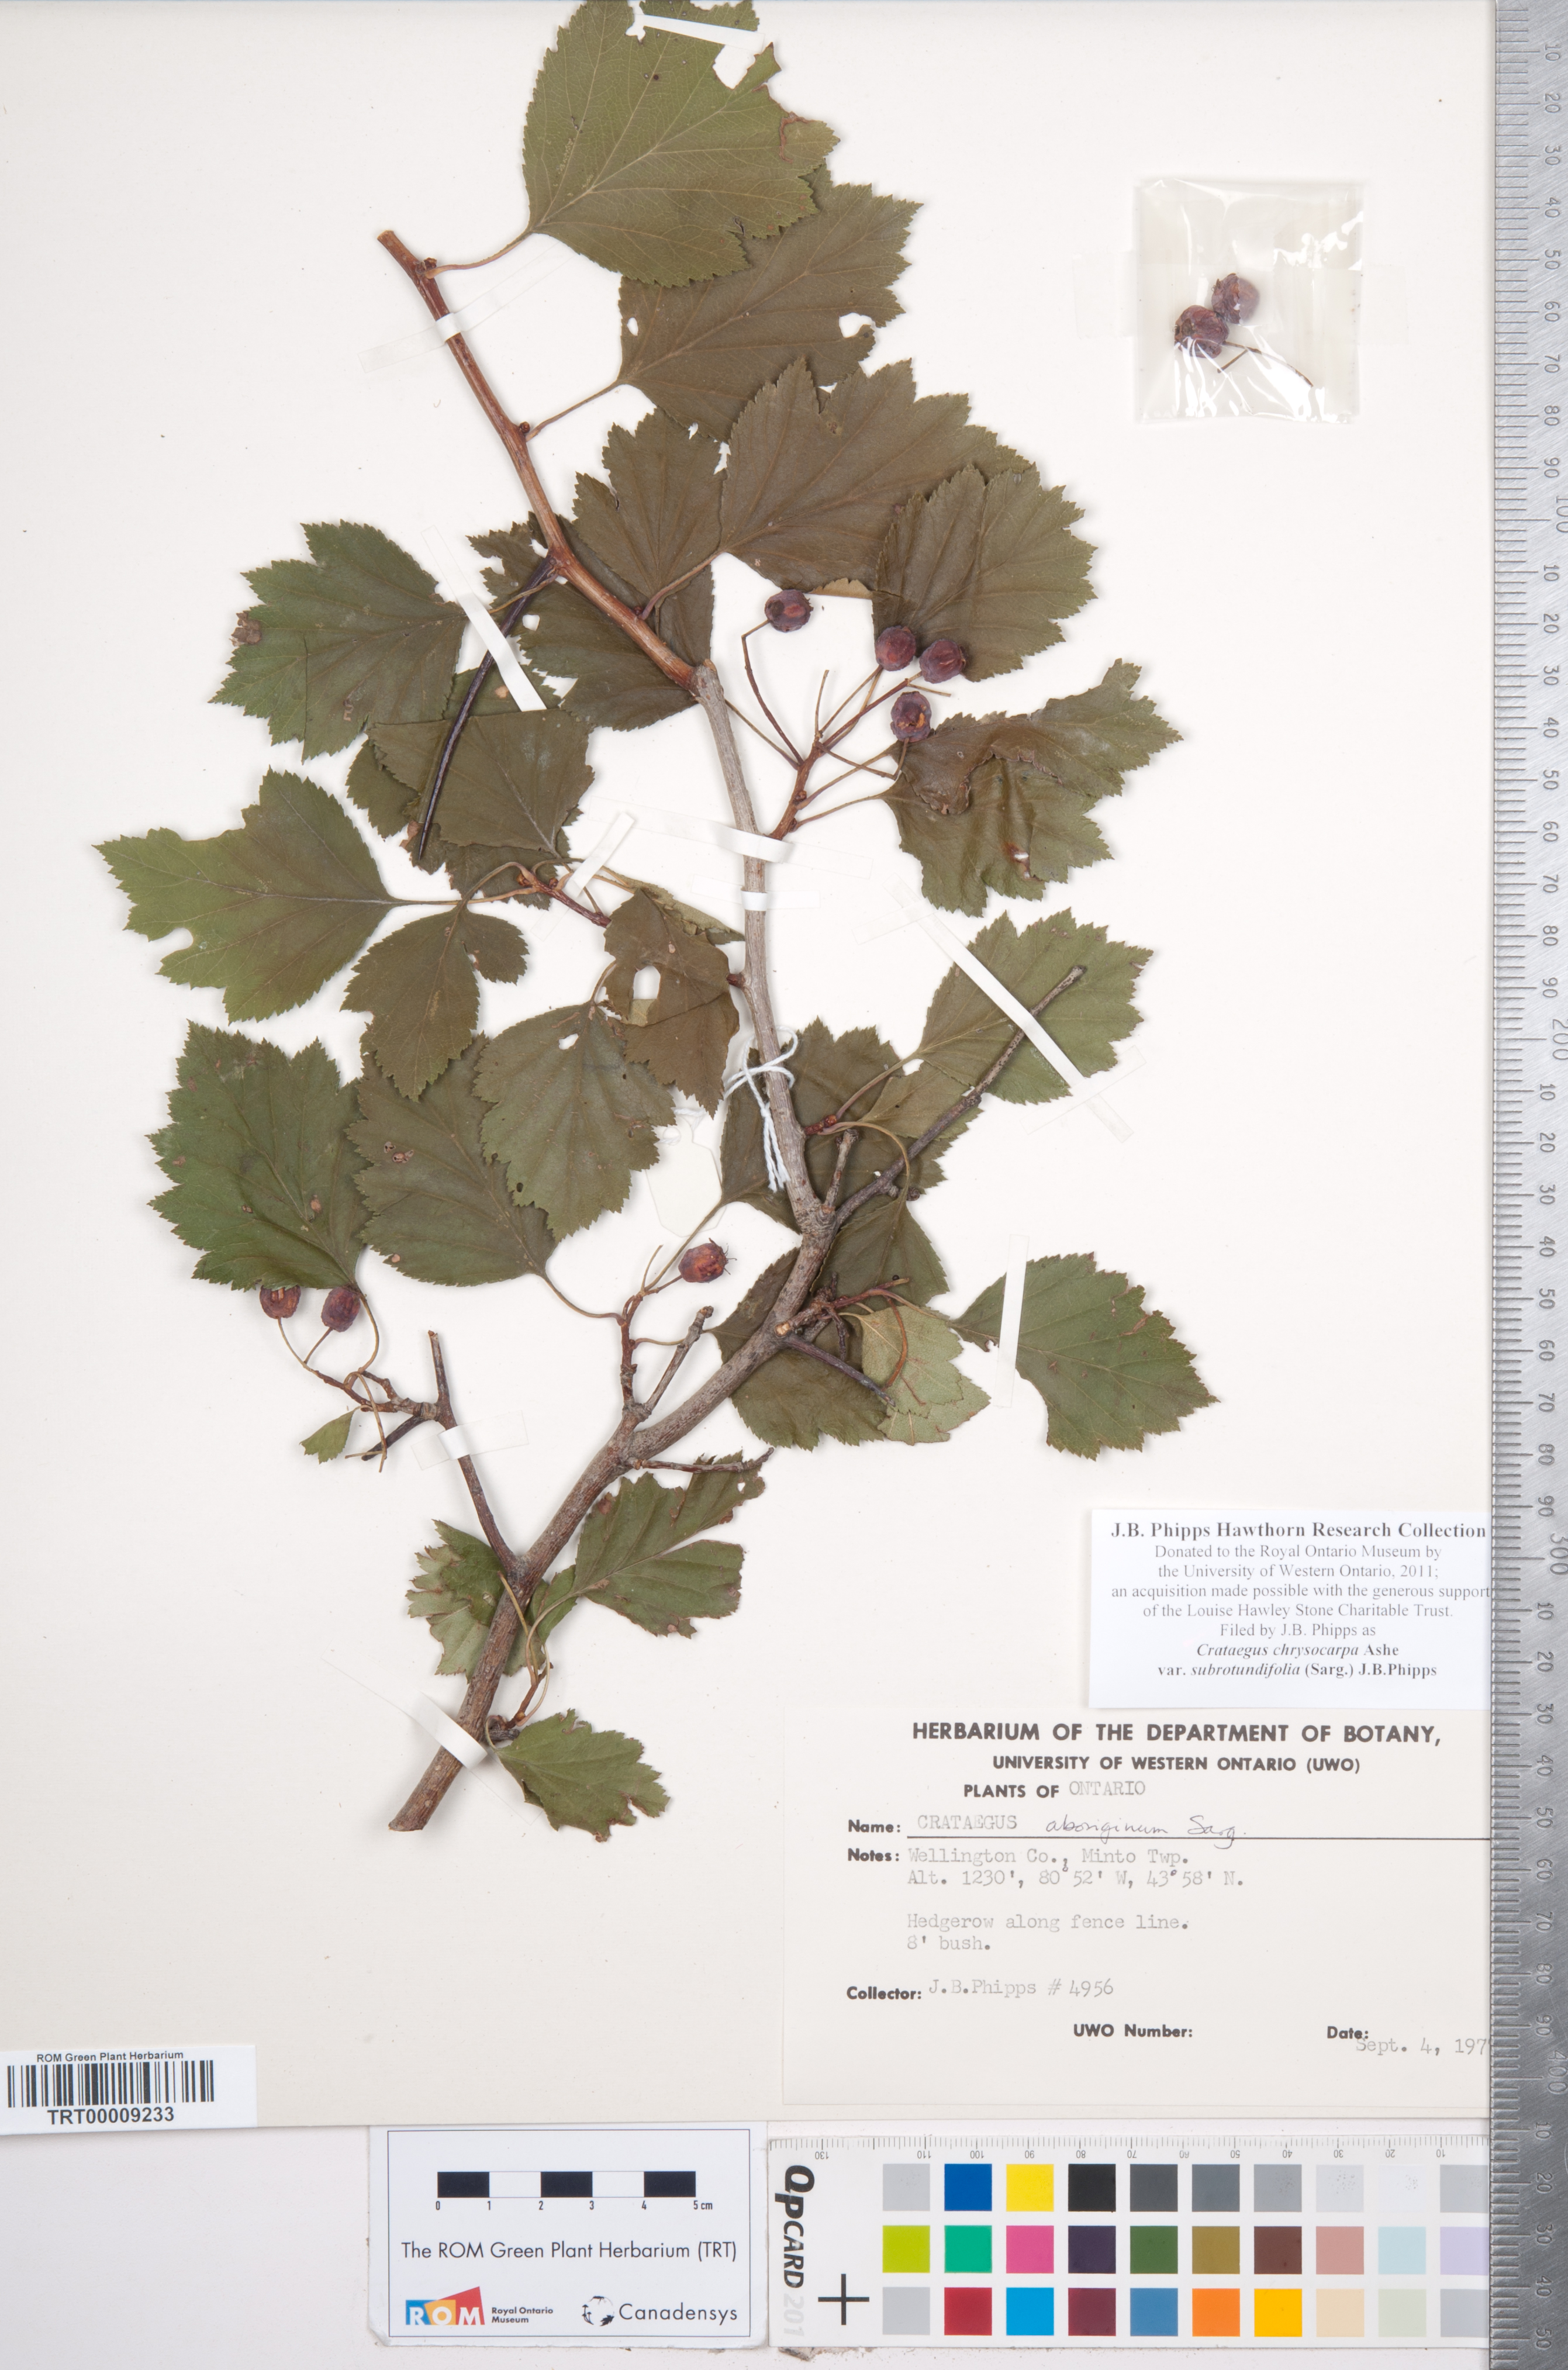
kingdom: Plantae
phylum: Tracheophyta
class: Magnoliopsida
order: Rosales
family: Rosaceae
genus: Crataegus
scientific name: Crataegus chrysocarpa
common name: Fire-berry hawthorn
